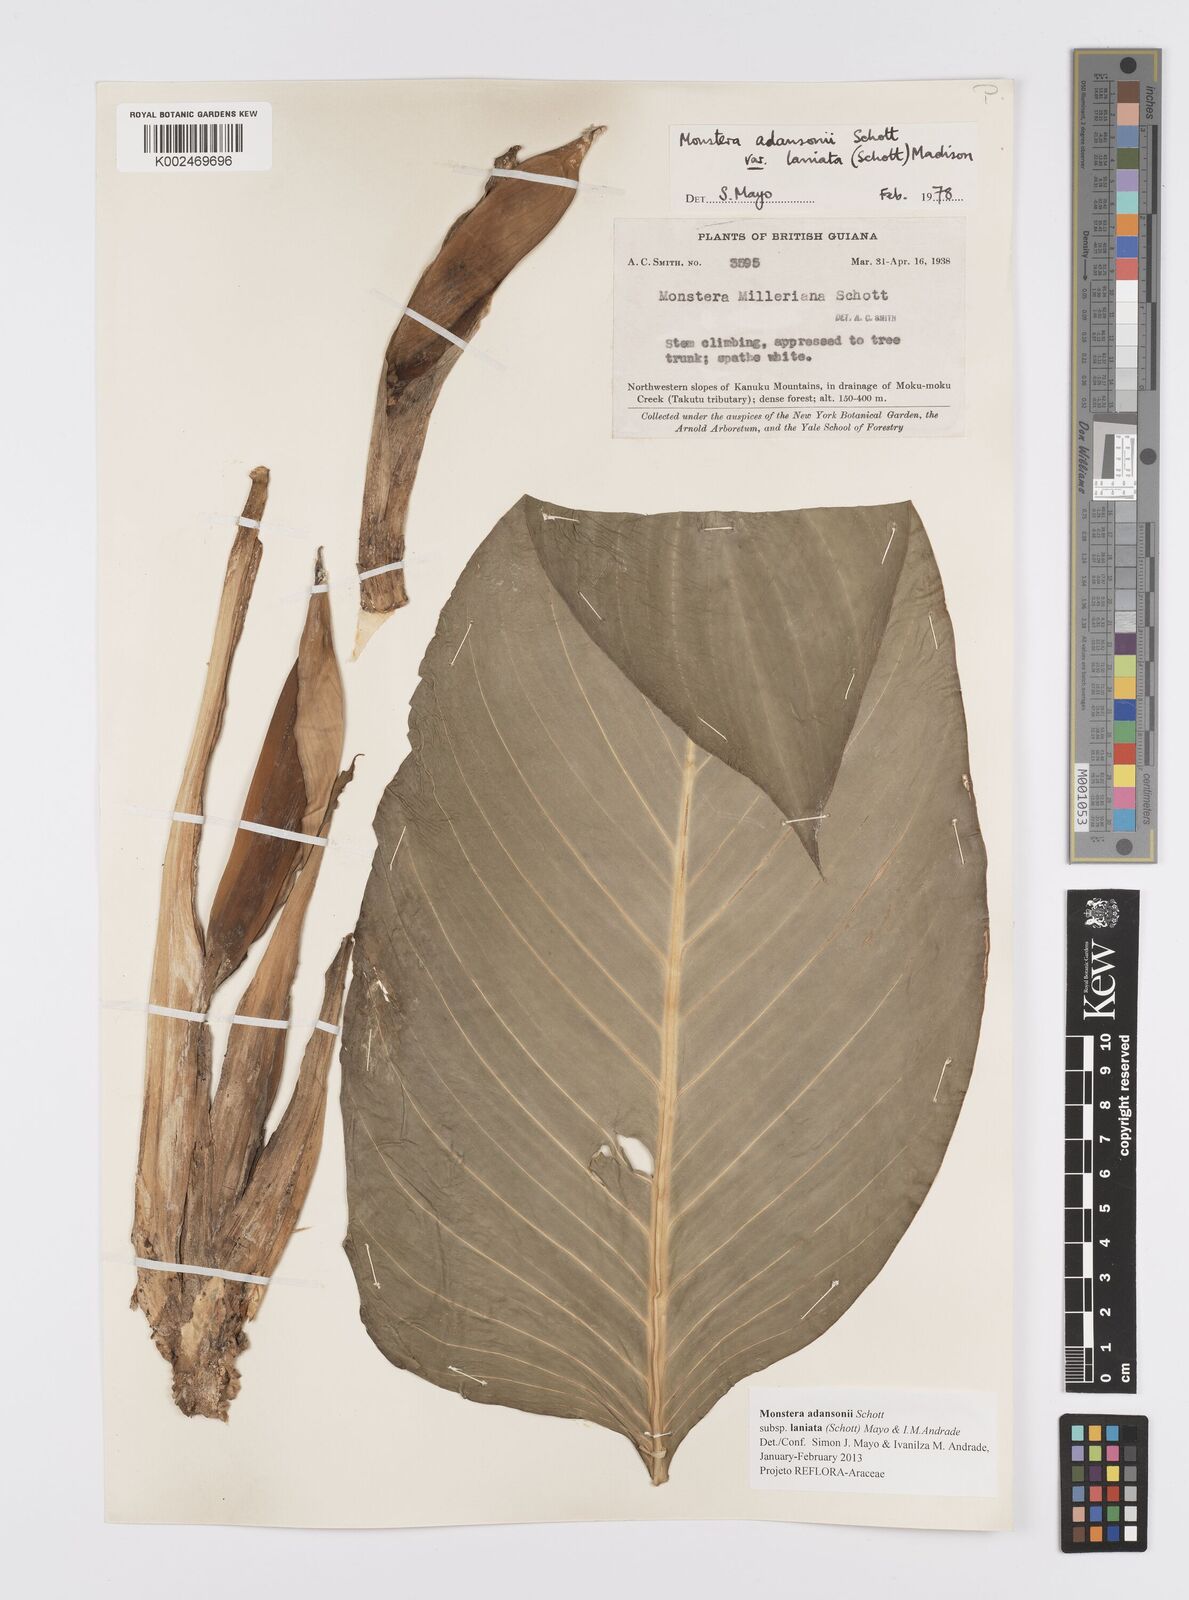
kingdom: Plantae
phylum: Tracheophyta
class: Liliopsida
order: Alismatales
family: Araceae
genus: Monstera
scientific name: Monstera adansonii
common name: Tarovine
